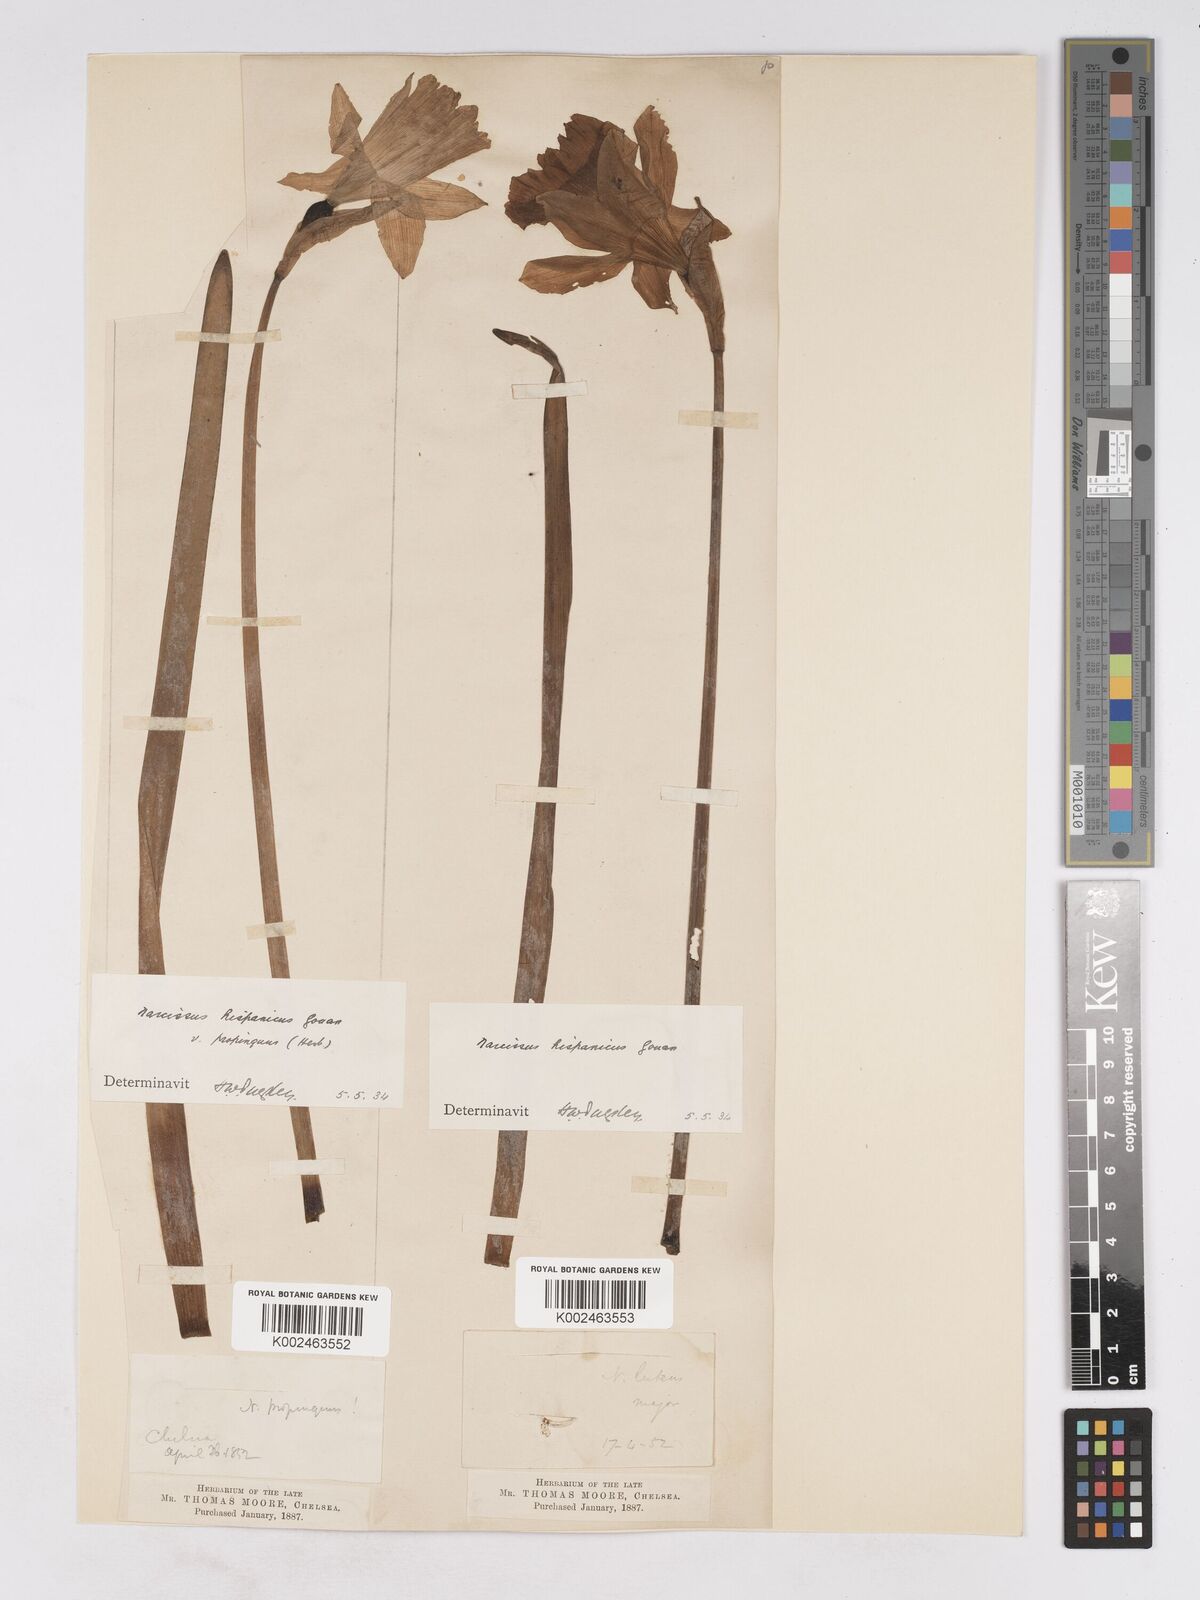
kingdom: Plantae
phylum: Tracheophyta
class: Liliopsida
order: Asparagales
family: Amaryllidaceae
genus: Narcissus
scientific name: Narcissus hispanicus
